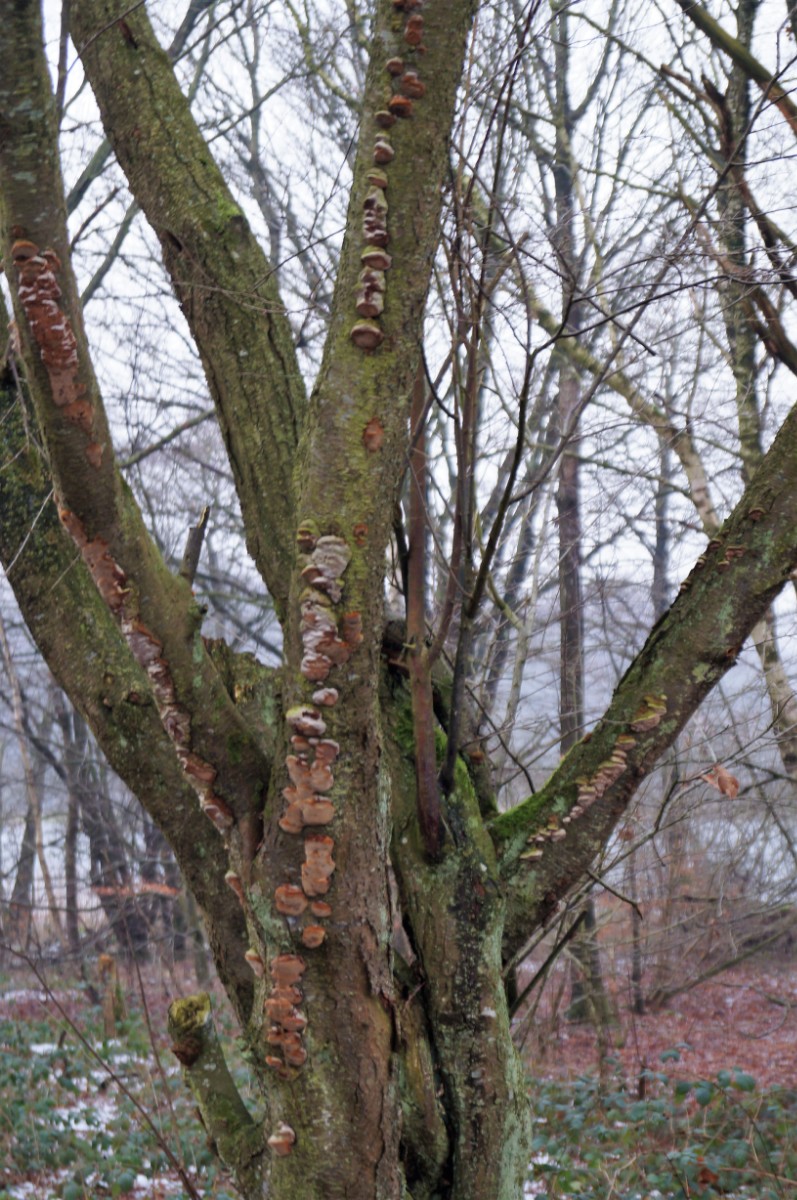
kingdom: Fungi
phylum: Basidiomycota
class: Agaricomycetes
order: Hymenochaetales
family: Hymenochaetaceae
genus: Phellinus
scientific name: Phellinus pomaceus
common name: blomme-ildporesvamp
